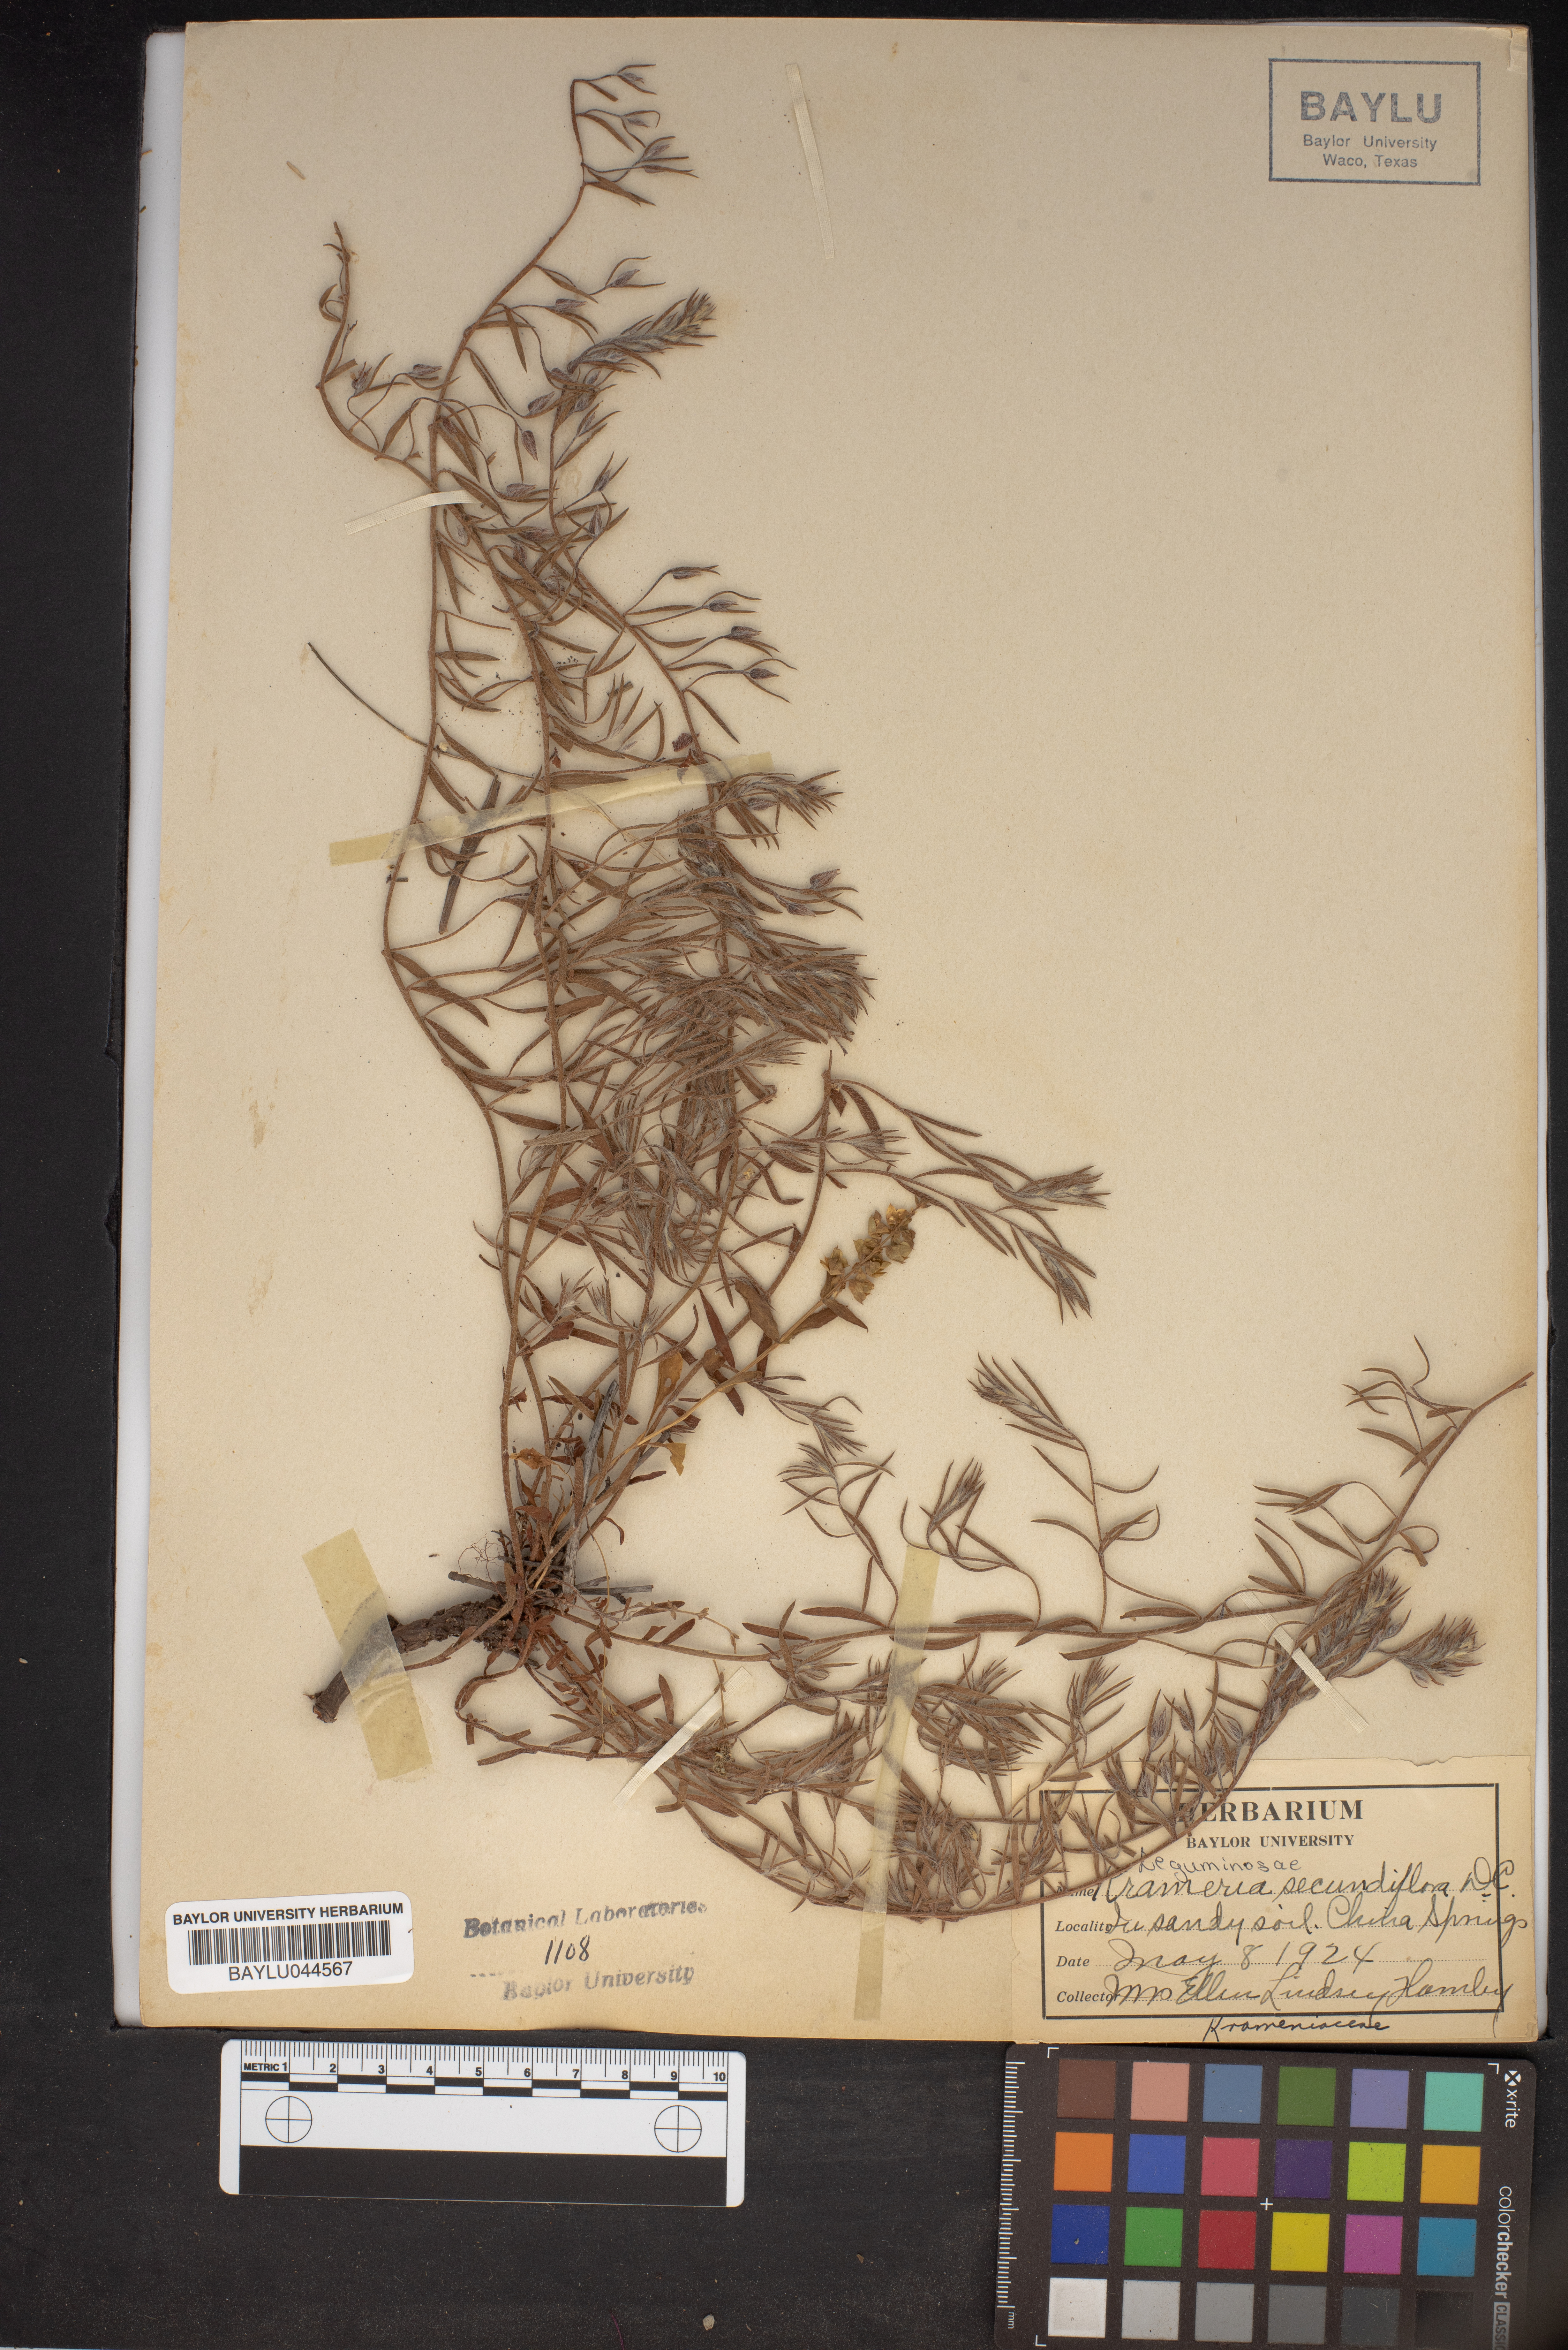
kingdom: Plantae
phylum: Tracheophyta
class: Magnoliopsida
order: Zygophyllales
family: Krameriaceae
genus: Krameria
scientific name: Krameria secundiflora
